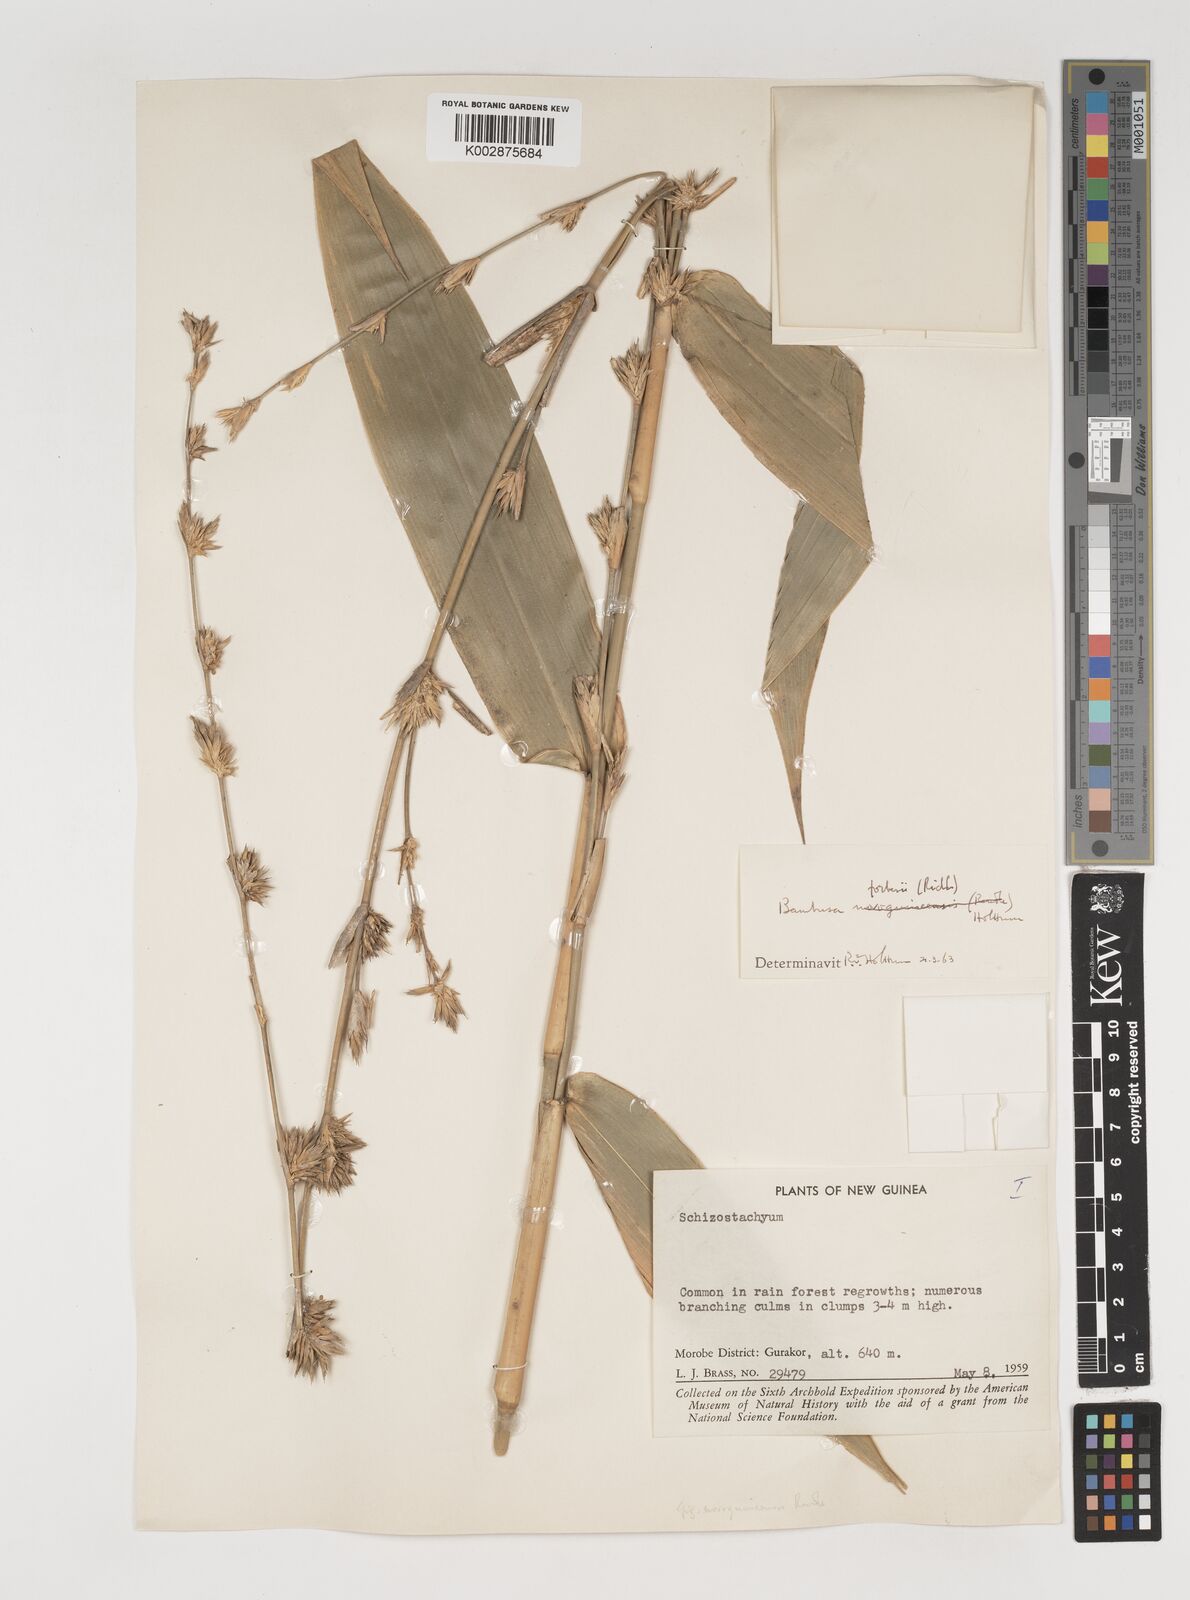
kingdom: Plantae
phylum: Tracheophyta
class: Liliopsida
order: Poales
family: Poaceae
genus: Neololeba
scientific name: Neololeba atra
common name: Cape bamboo
